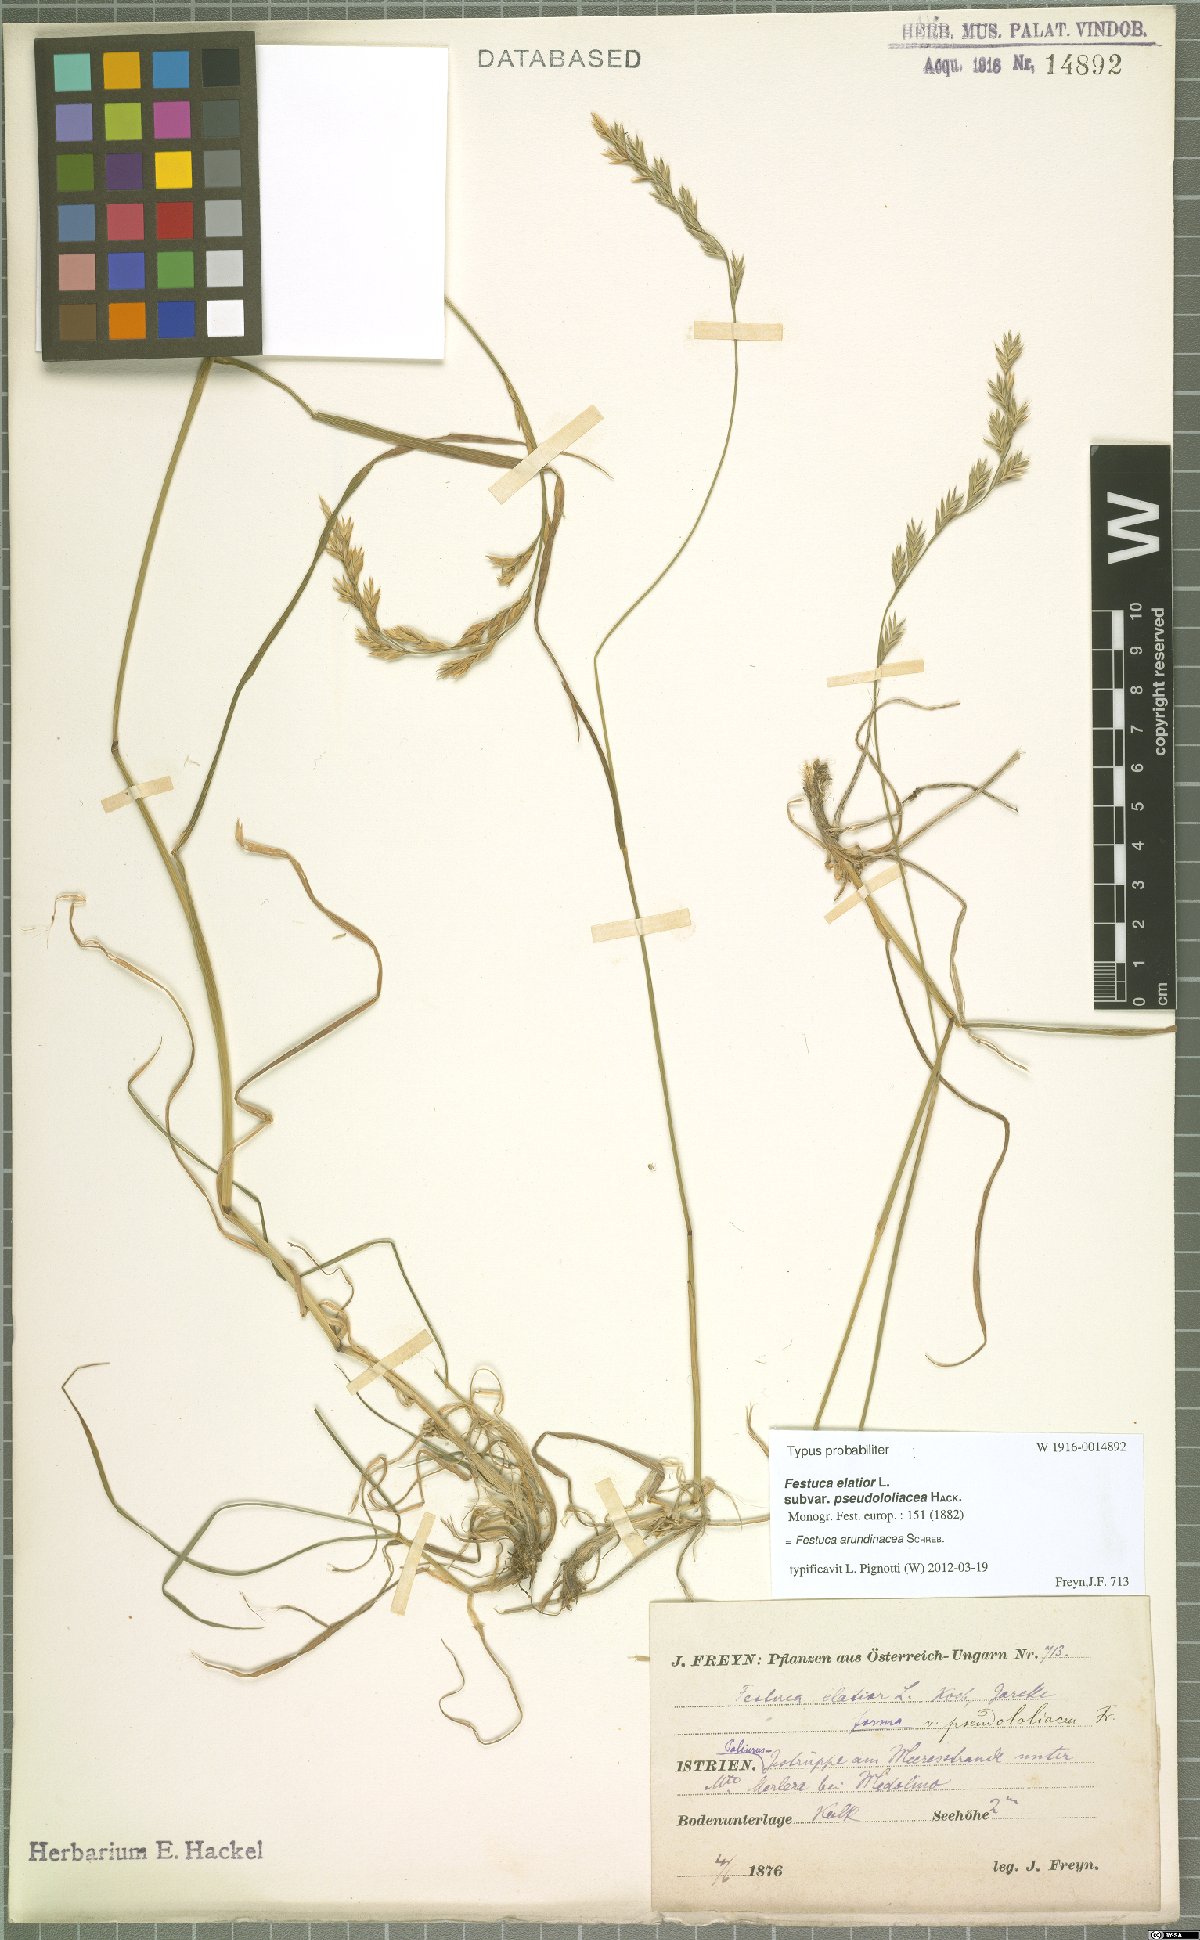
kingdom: Plantae
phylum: Tracheophyta
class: Liliopsida
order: Poales
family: Poaceae
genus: Lolium
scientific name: Lolium arundinaceum
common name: Reed fescue
